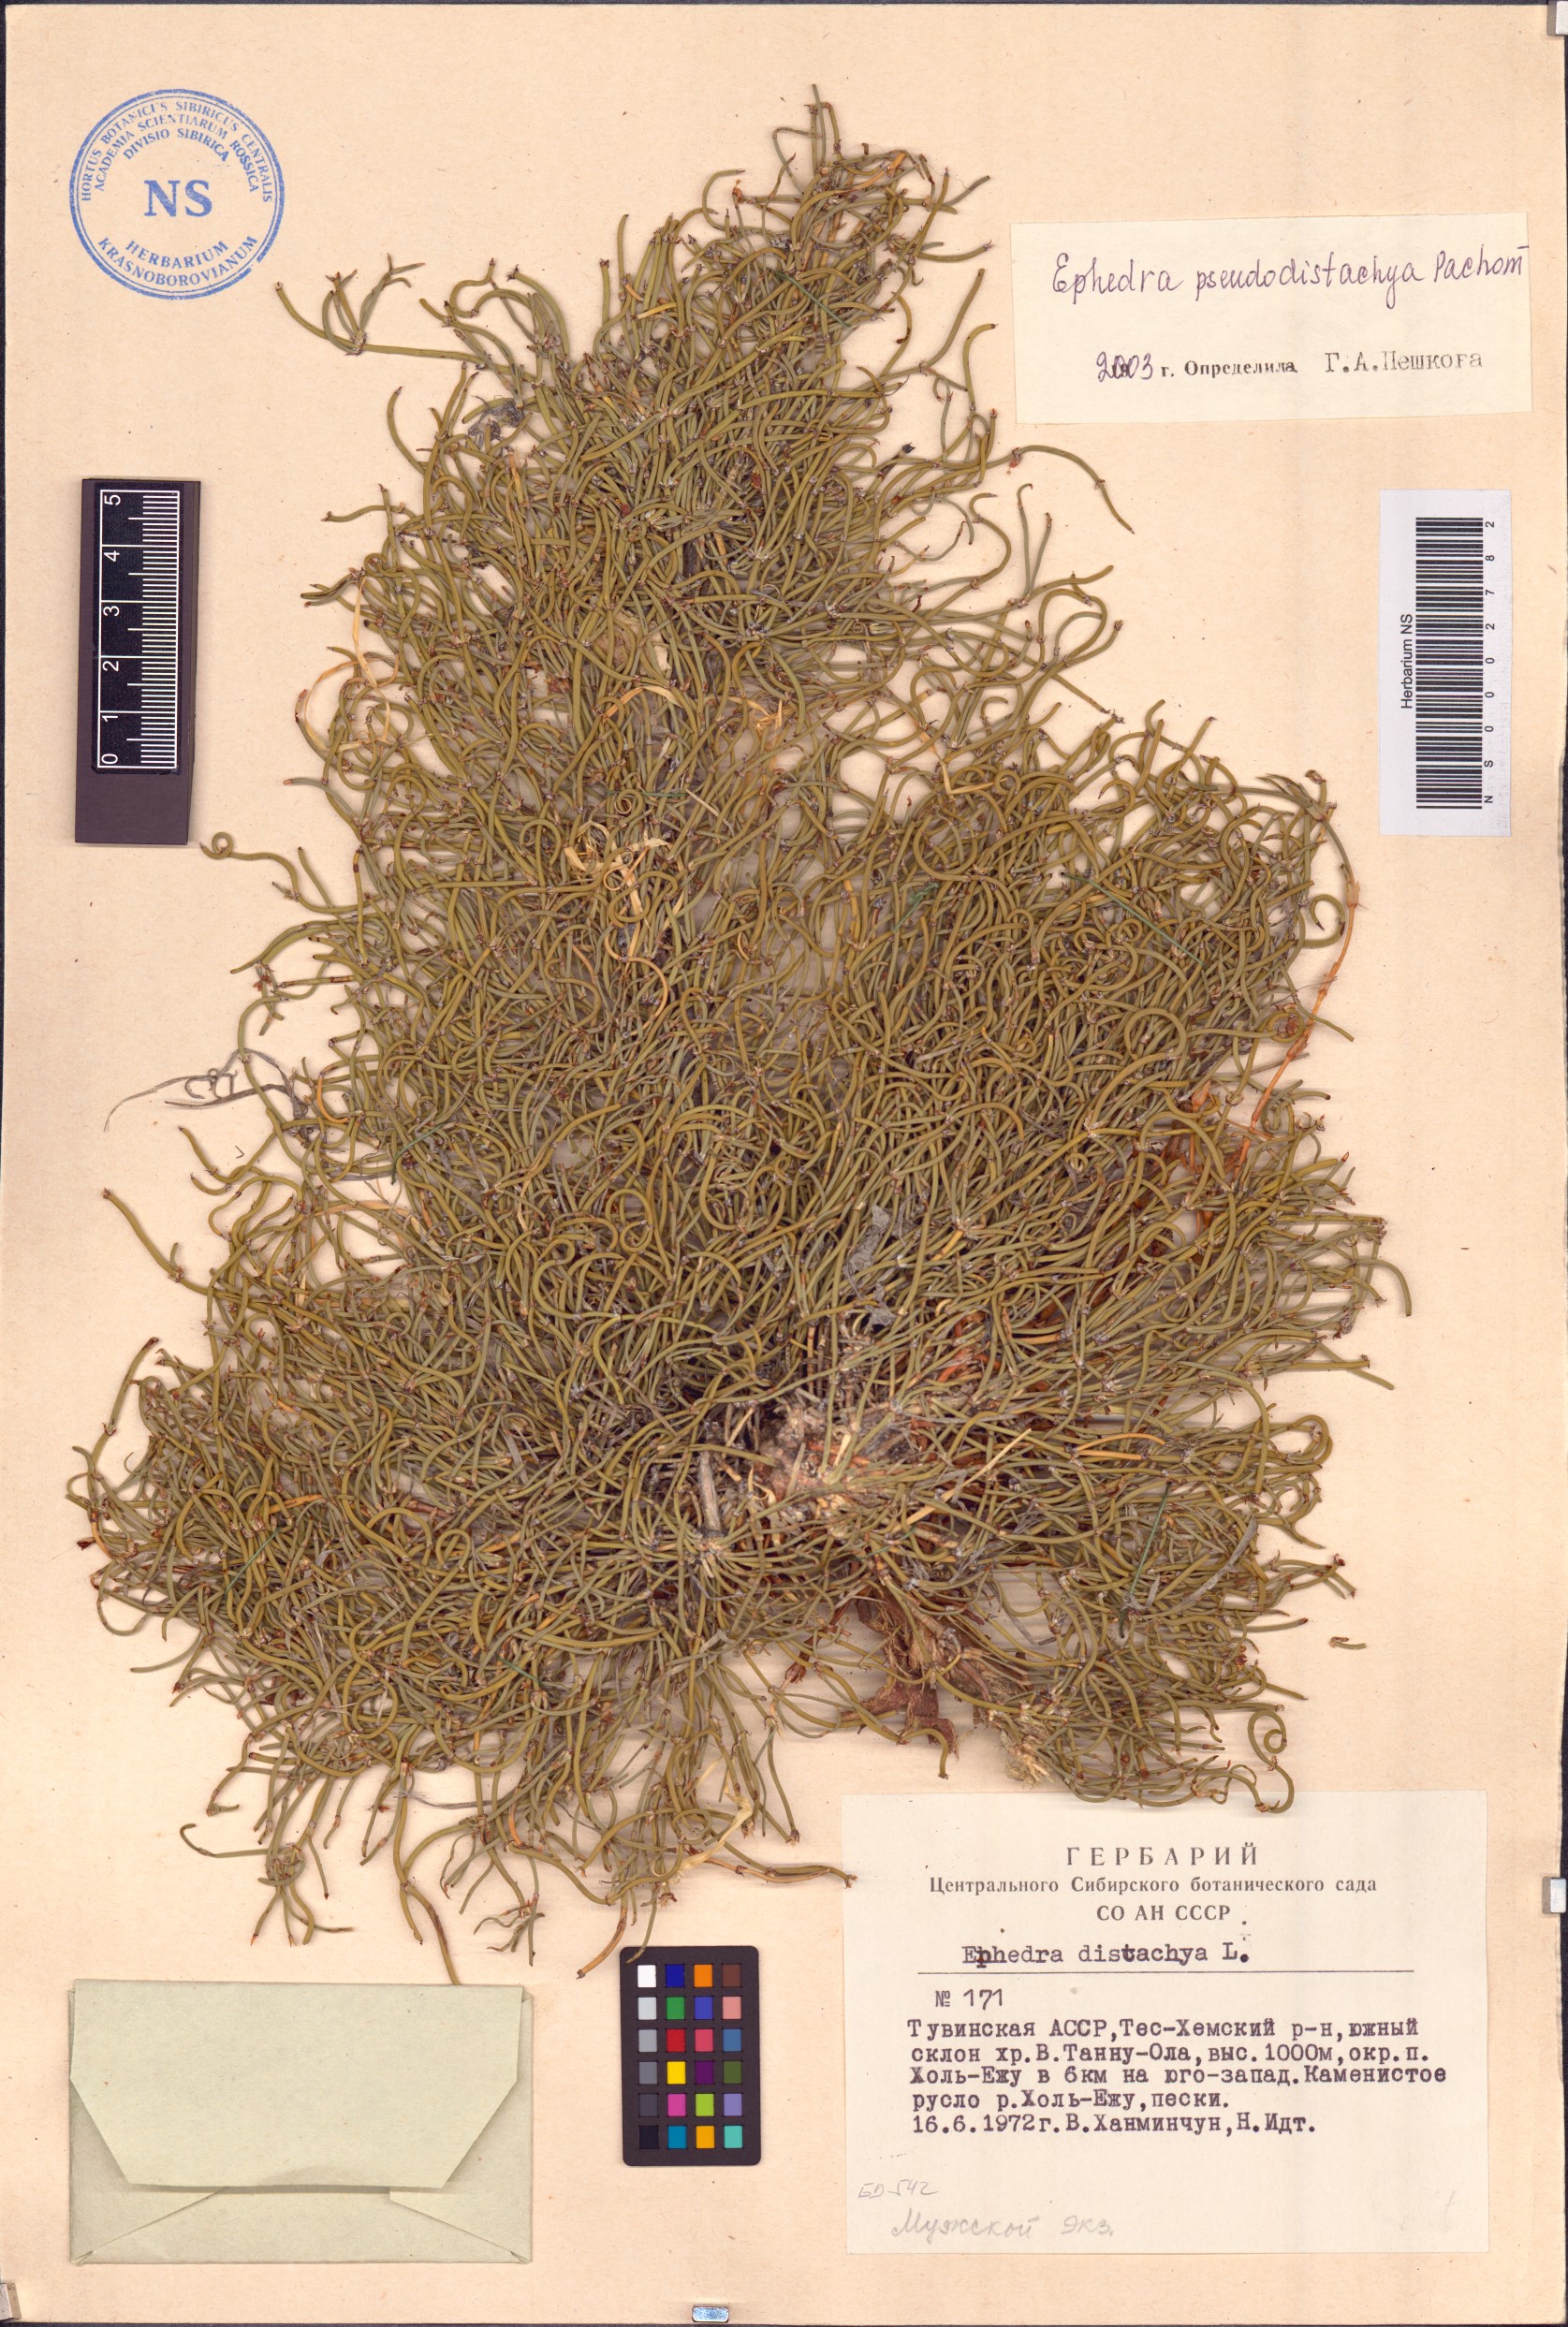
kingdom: Plantae
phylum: Tracheophyta
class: Gnetopsida
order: Ephedrales
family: Ephedraceae
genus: Ephedra
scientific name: Ephedra pseudodistachya
